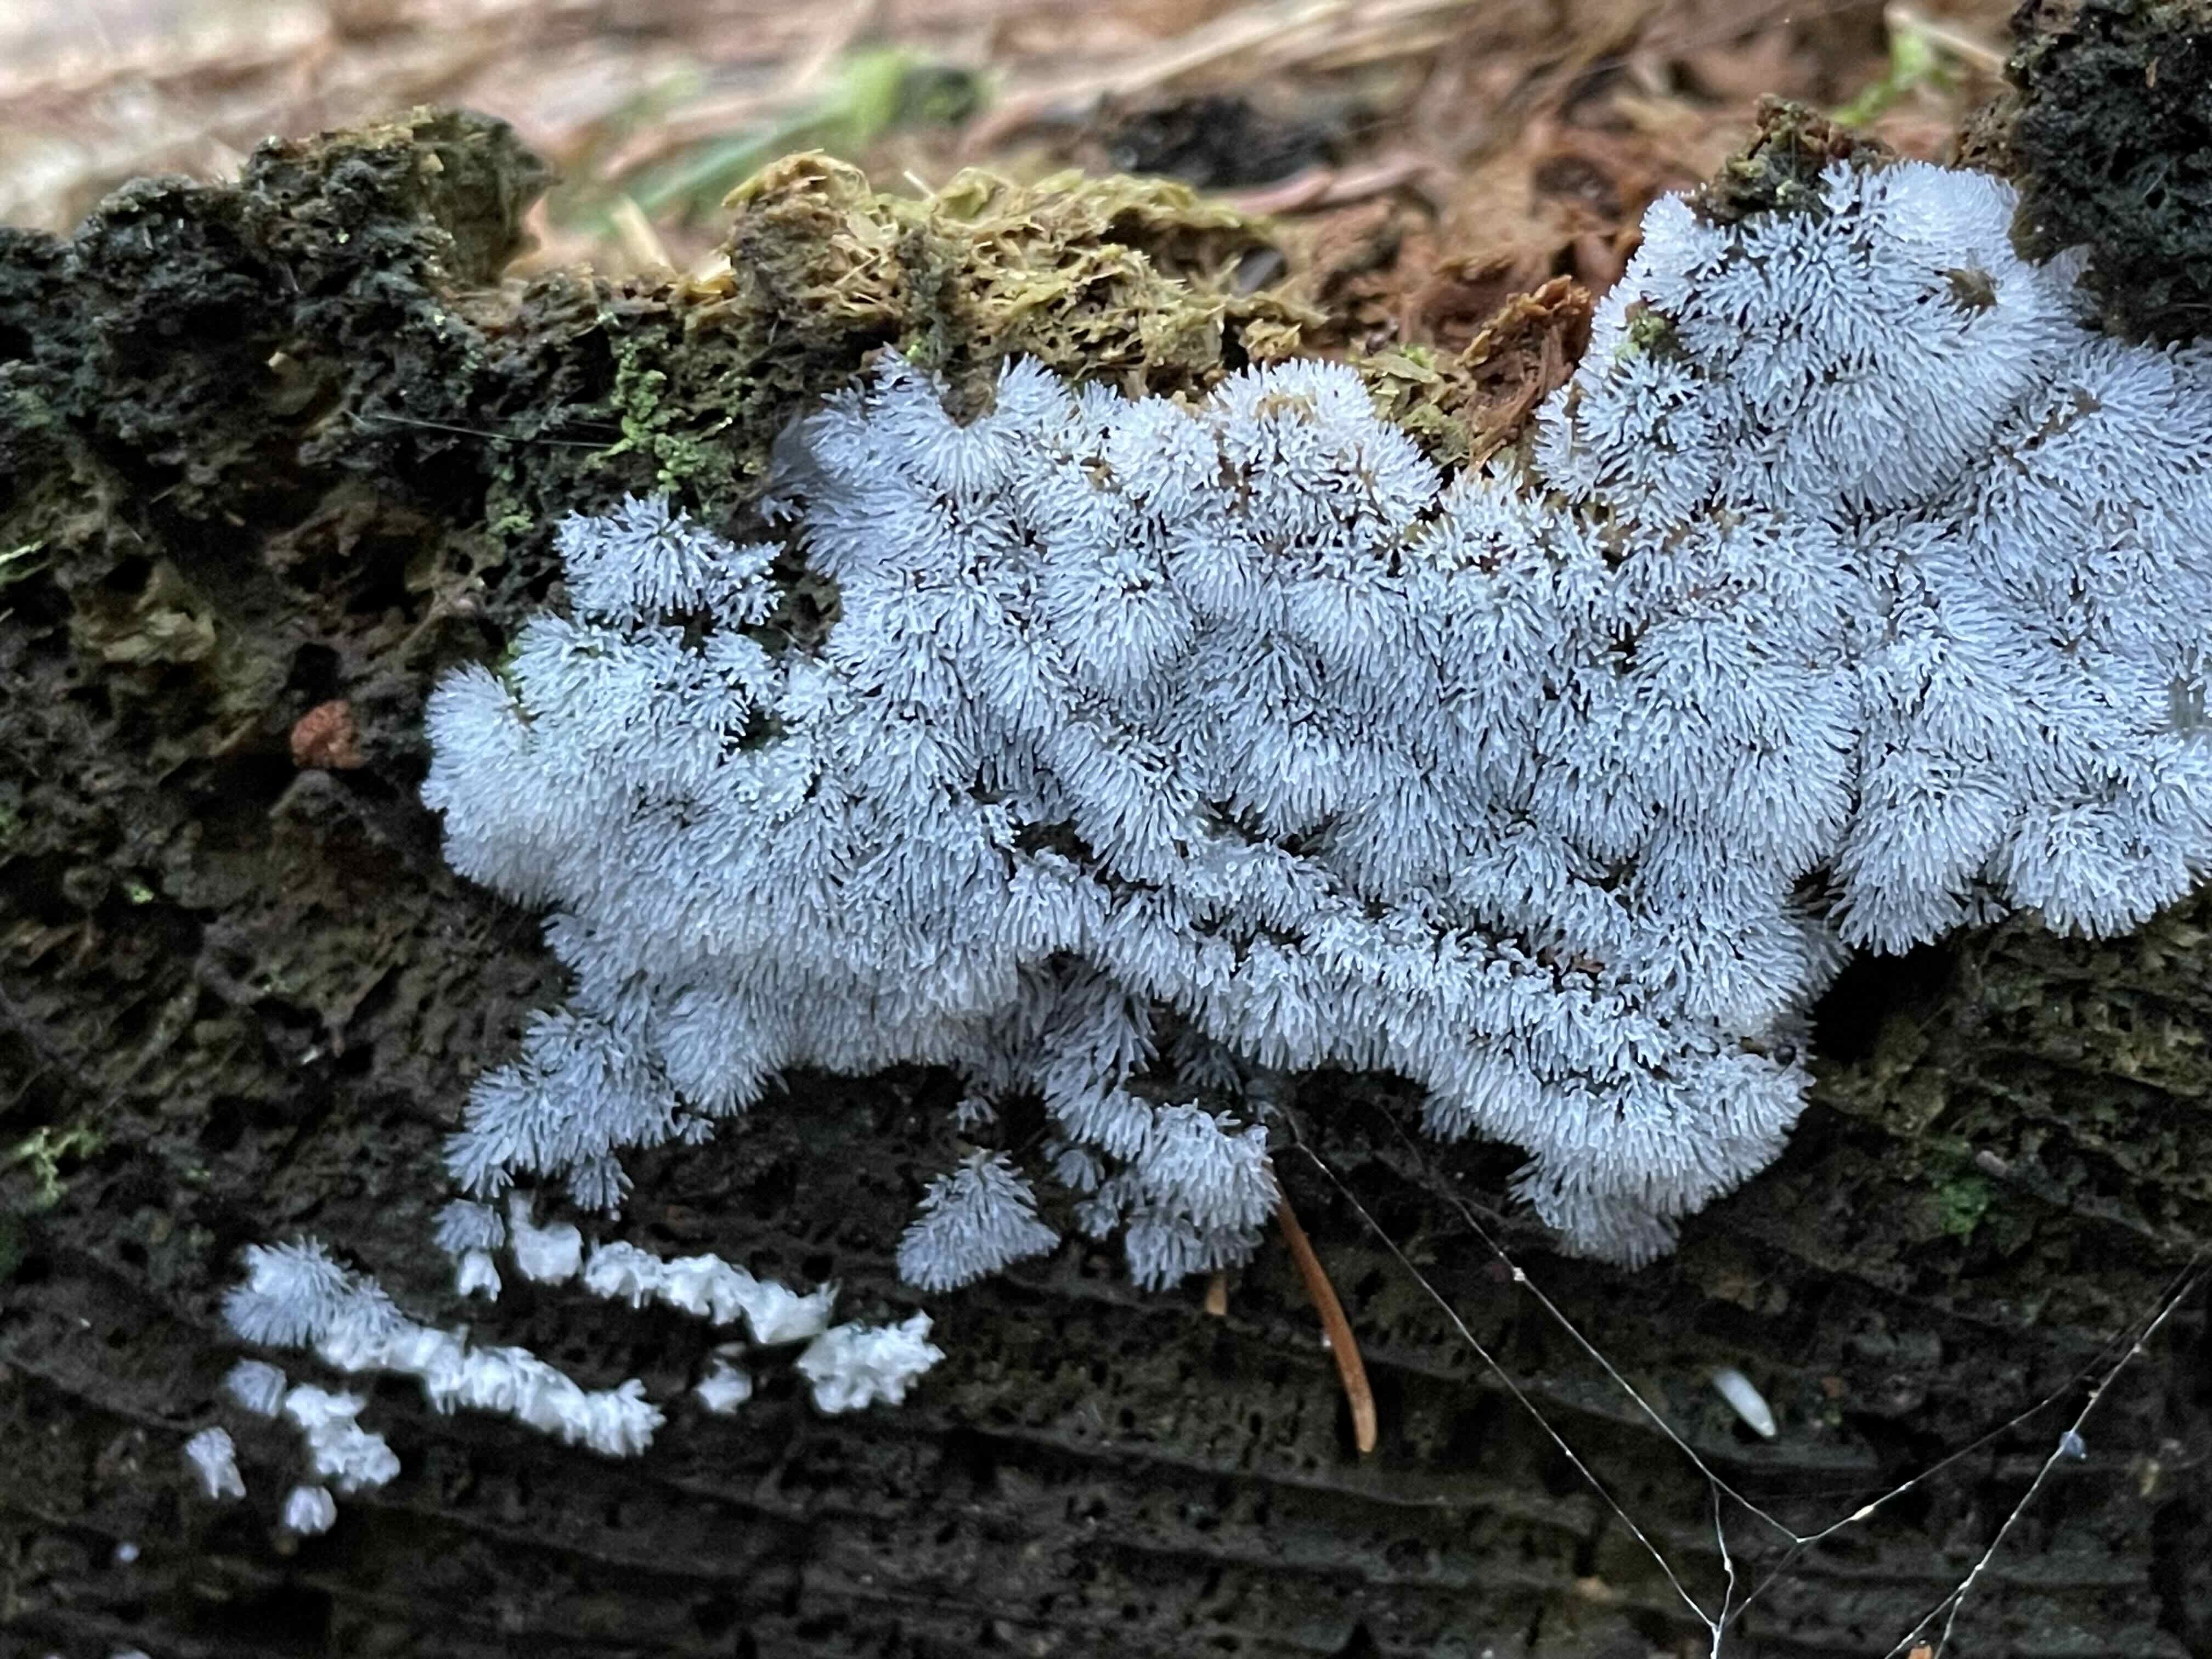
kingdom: Protozoa
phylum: Mycetozoa
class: Protosteliomycetes
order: Ceratiomyxales
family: Ceratiomyxaceae
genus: Ceratiomyxa
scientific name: Ceratiomyxa fruticulosa
